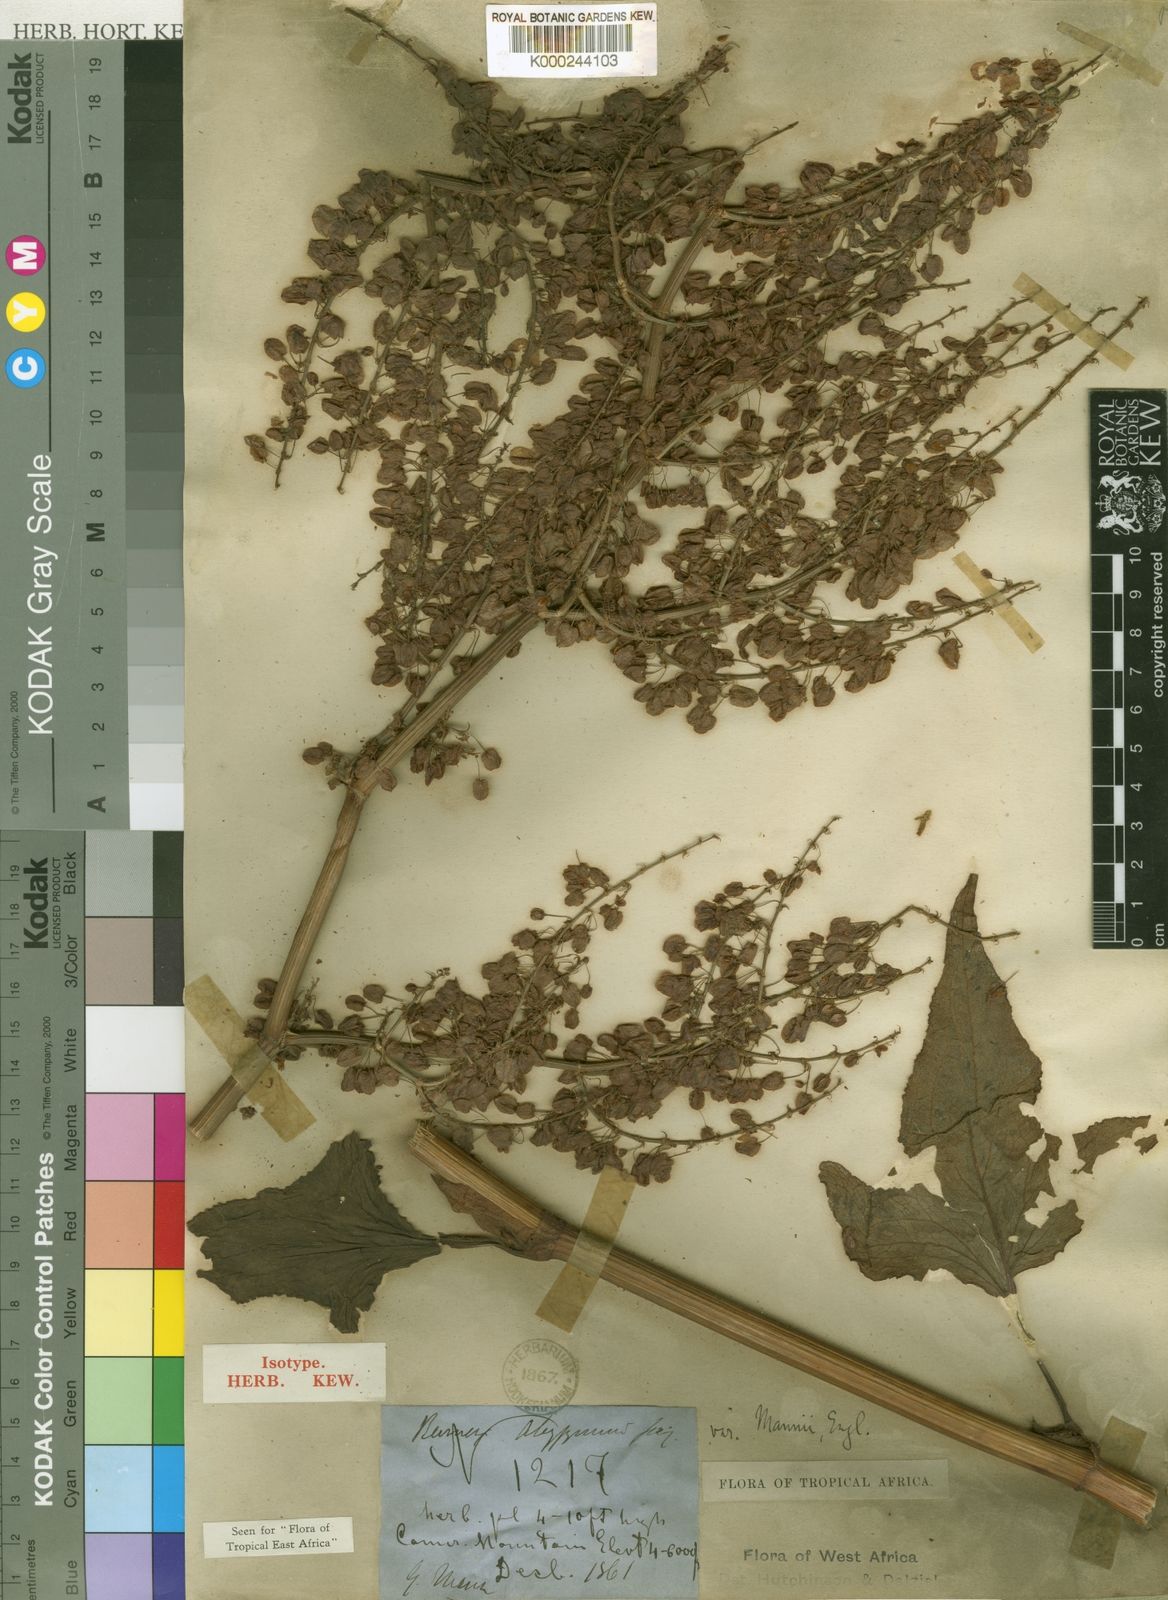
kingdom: Plantae
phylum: Tracheophyta
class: Magnoliopsida
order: Caryophyllales
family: Polygonaceae
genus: Rumex
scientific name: Rumex abyssinicus
